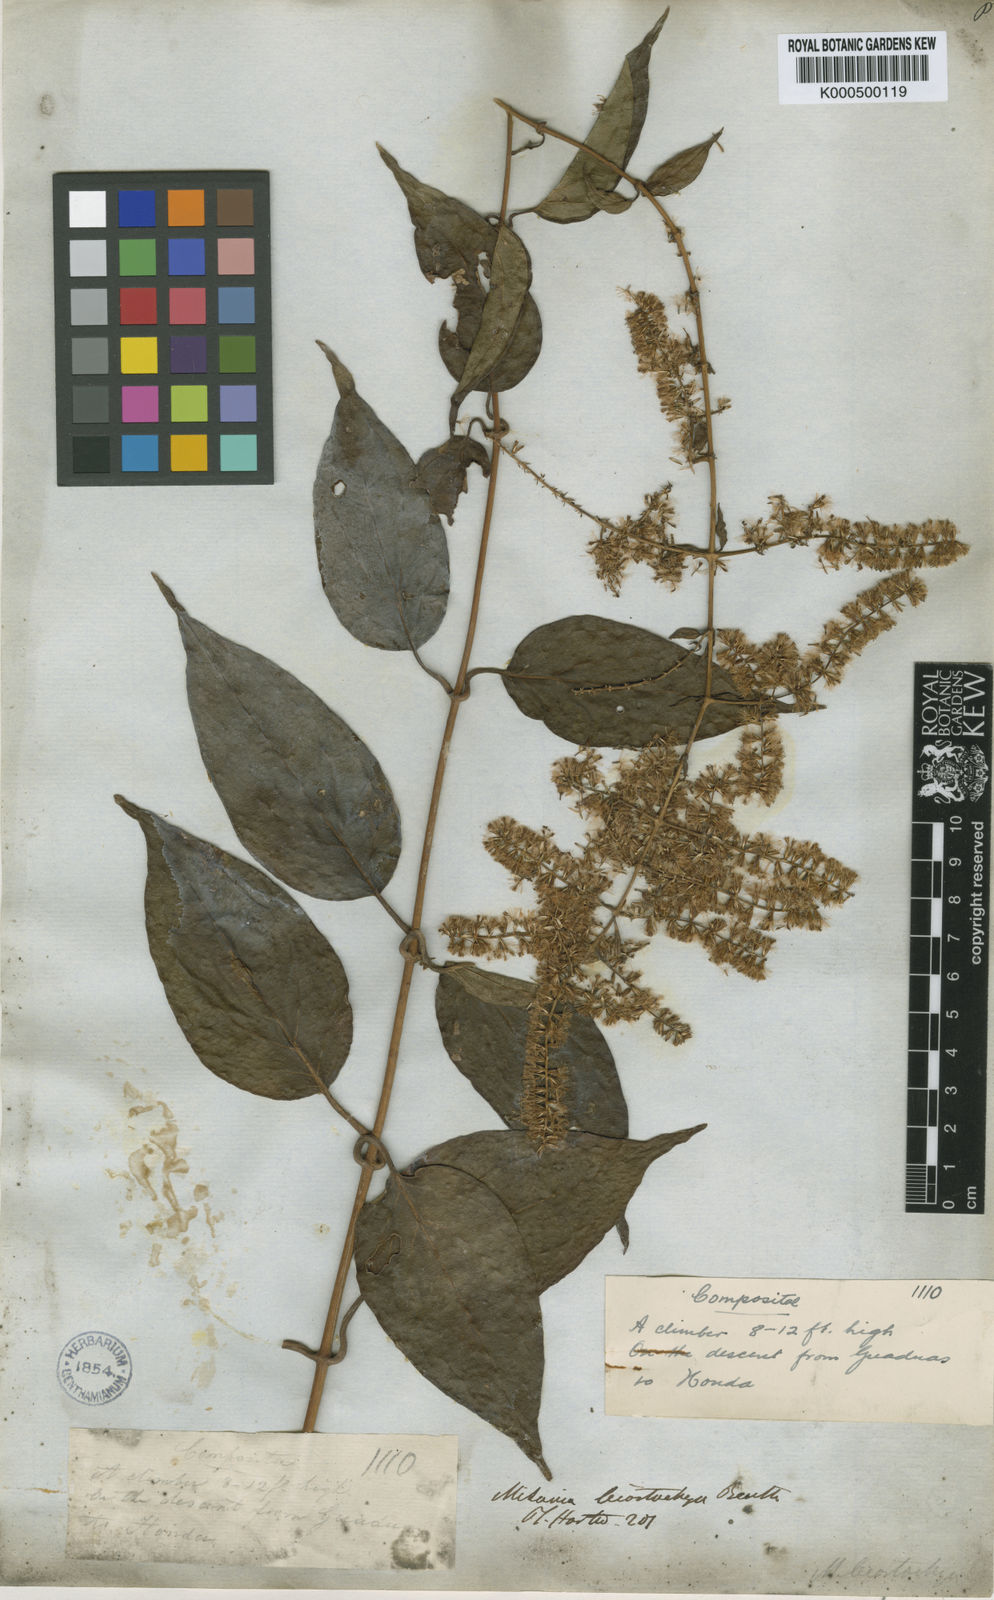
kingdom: Plantae
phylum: Tracheophyta
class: Magnoliopsida
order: Asterales
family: Asteraceae
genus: Mikania
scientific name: Mikania leiostachya
